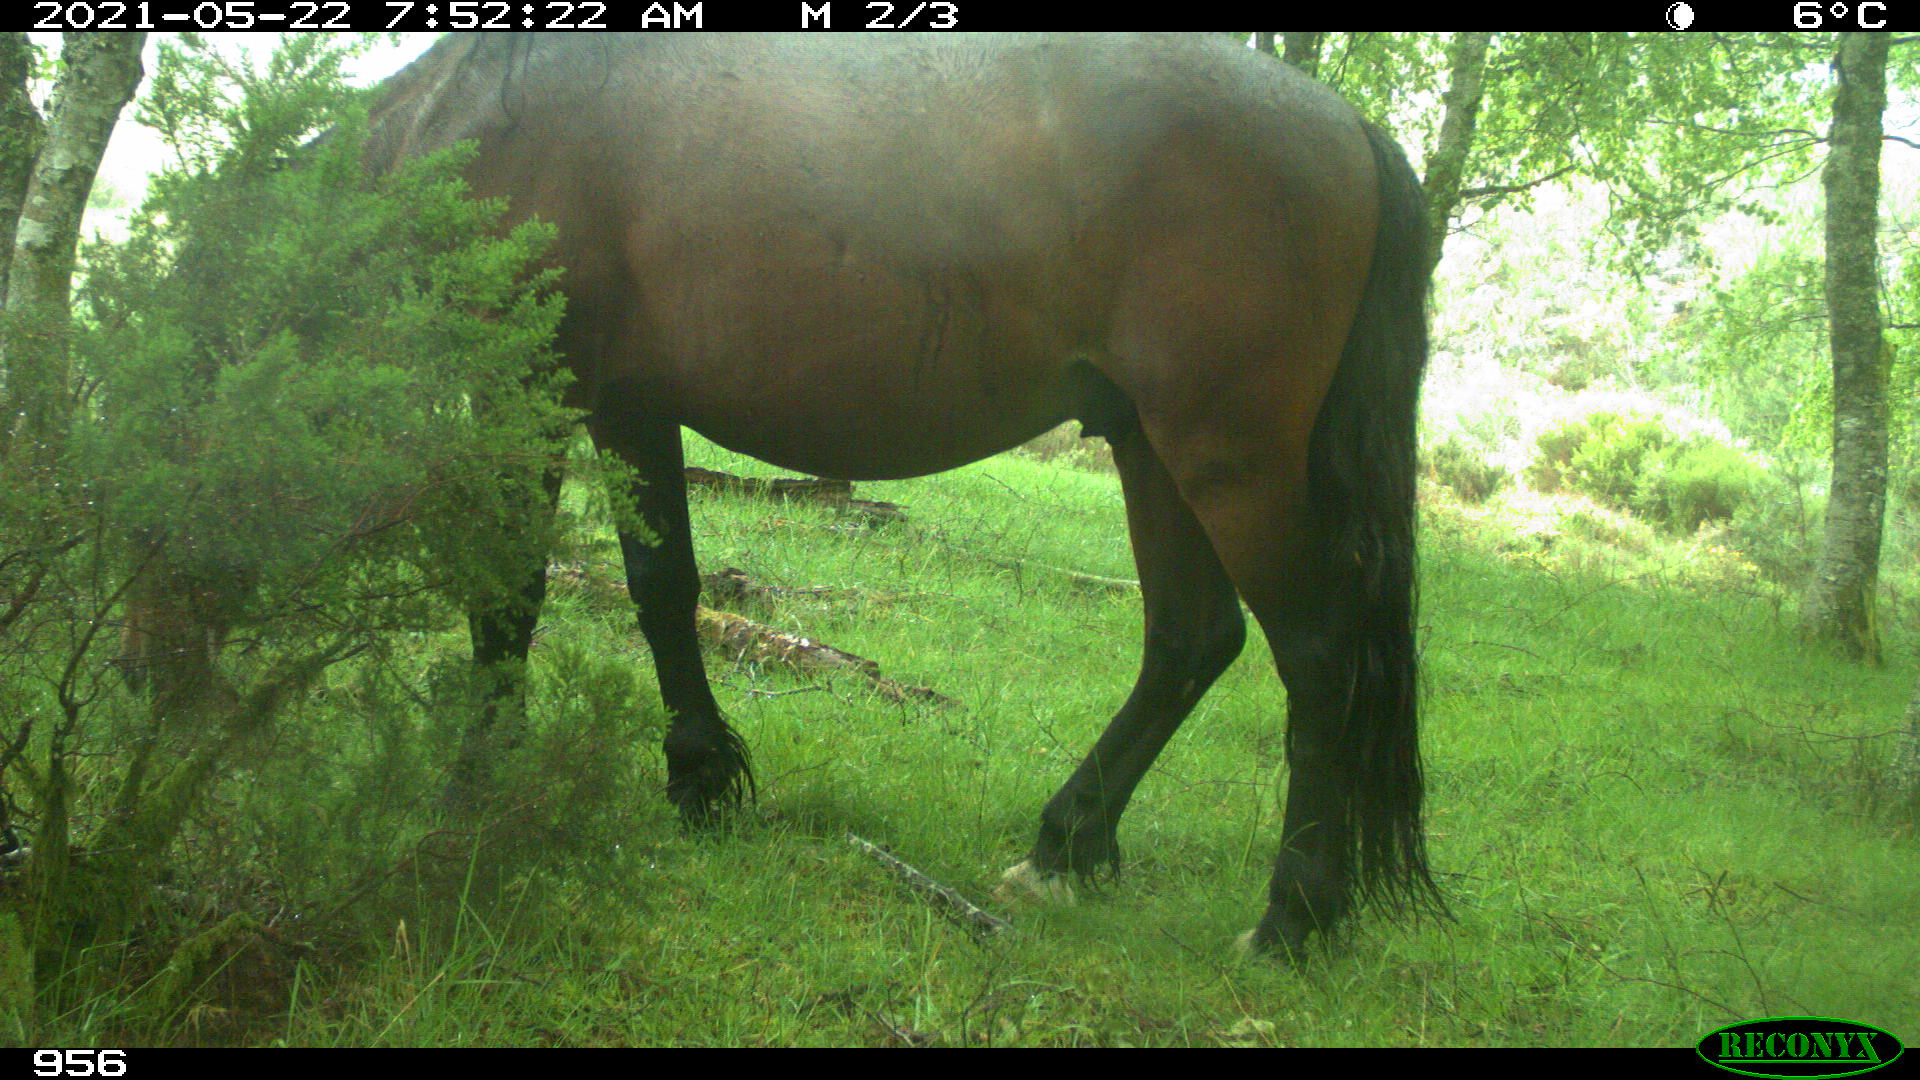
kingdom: Animalia
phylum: Chordata
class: Mammalia
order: Perissodactyla
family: Equidae
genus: Equus
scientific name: Equus caballus
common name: Horse
